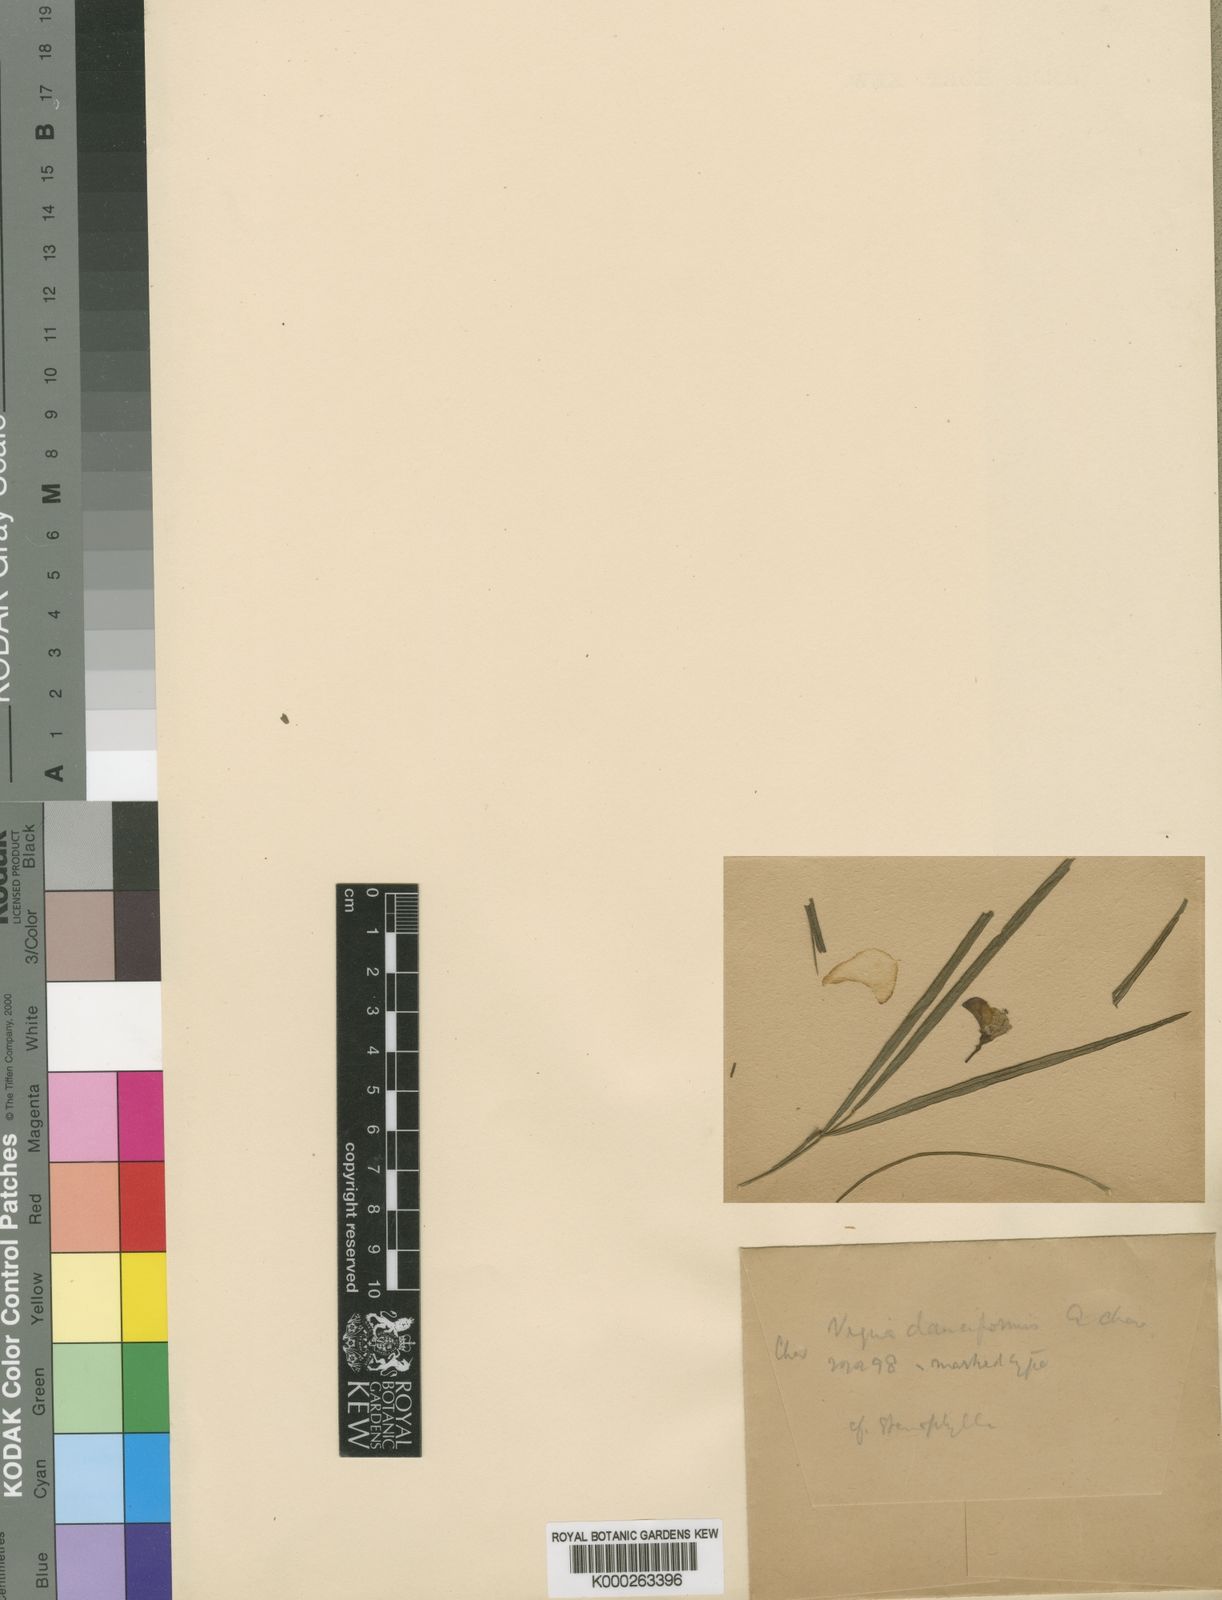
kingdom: Plantae
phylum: Tracheophyta
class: Magnoliopsida
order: Fabales
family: Fabaceae
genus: Vigna
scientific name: Vigna unguiculata
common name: Cowpea
